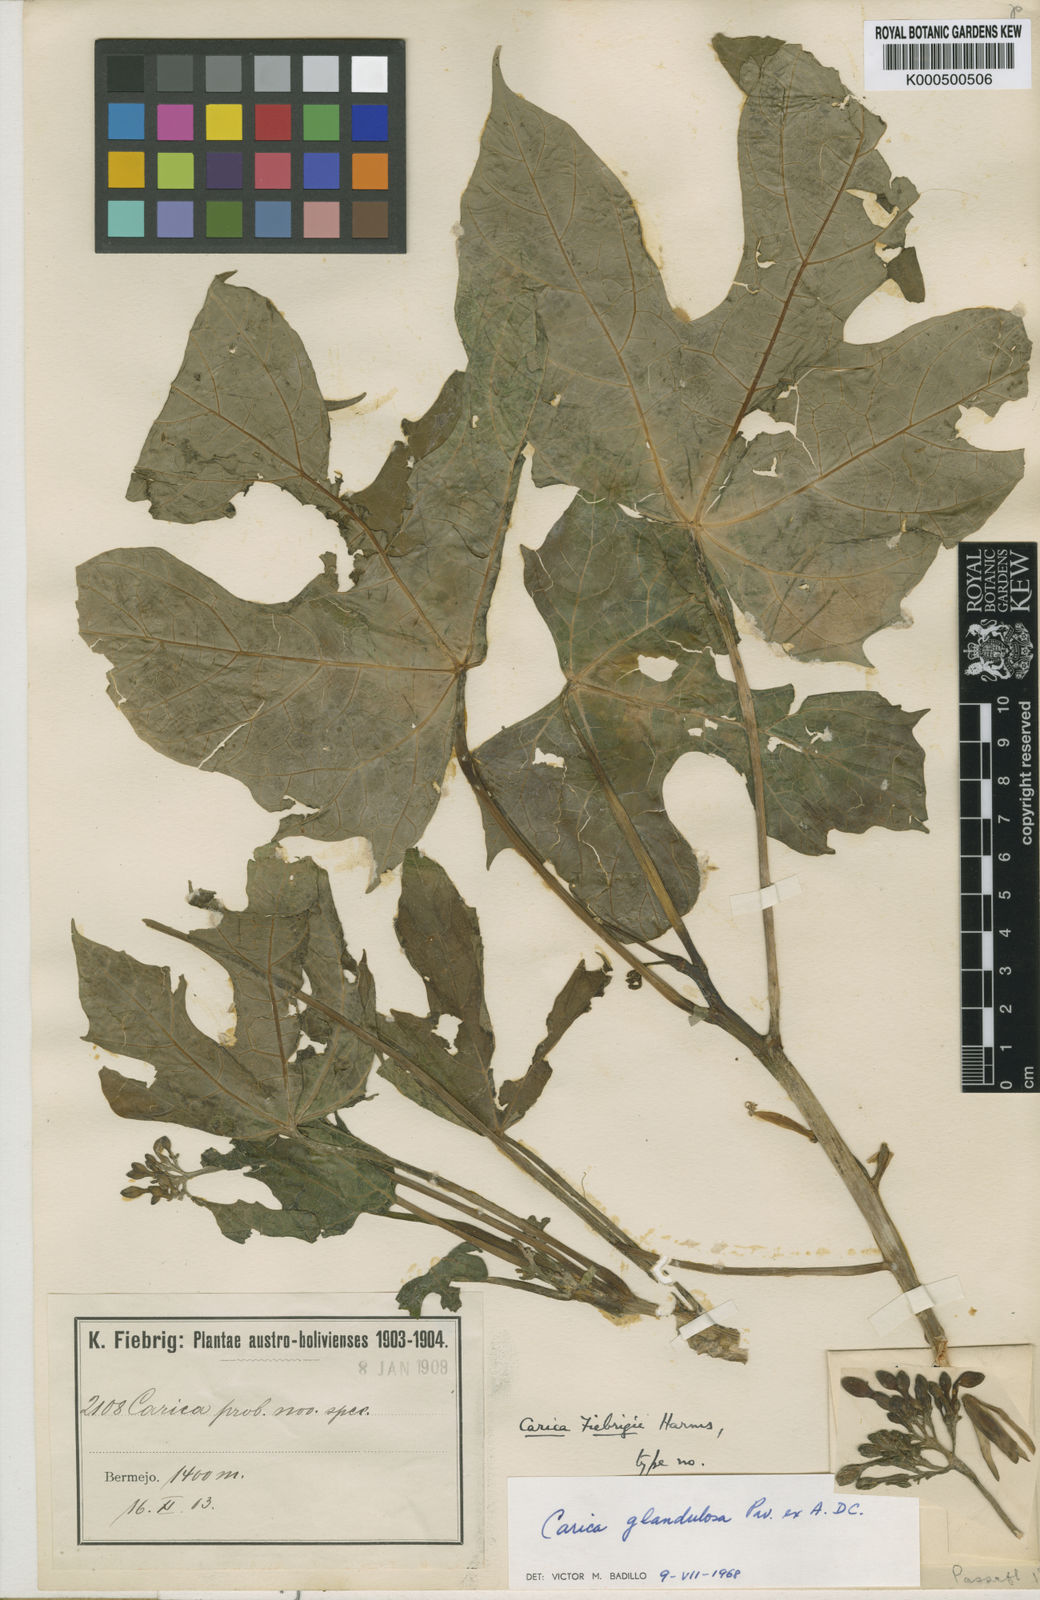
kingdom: Plantae
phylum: Tracheophyta
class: Magnoliopsida
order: Brassicales
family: Caricaceae
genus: Vasconcellea
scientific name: Vasconcellea glandulosa
